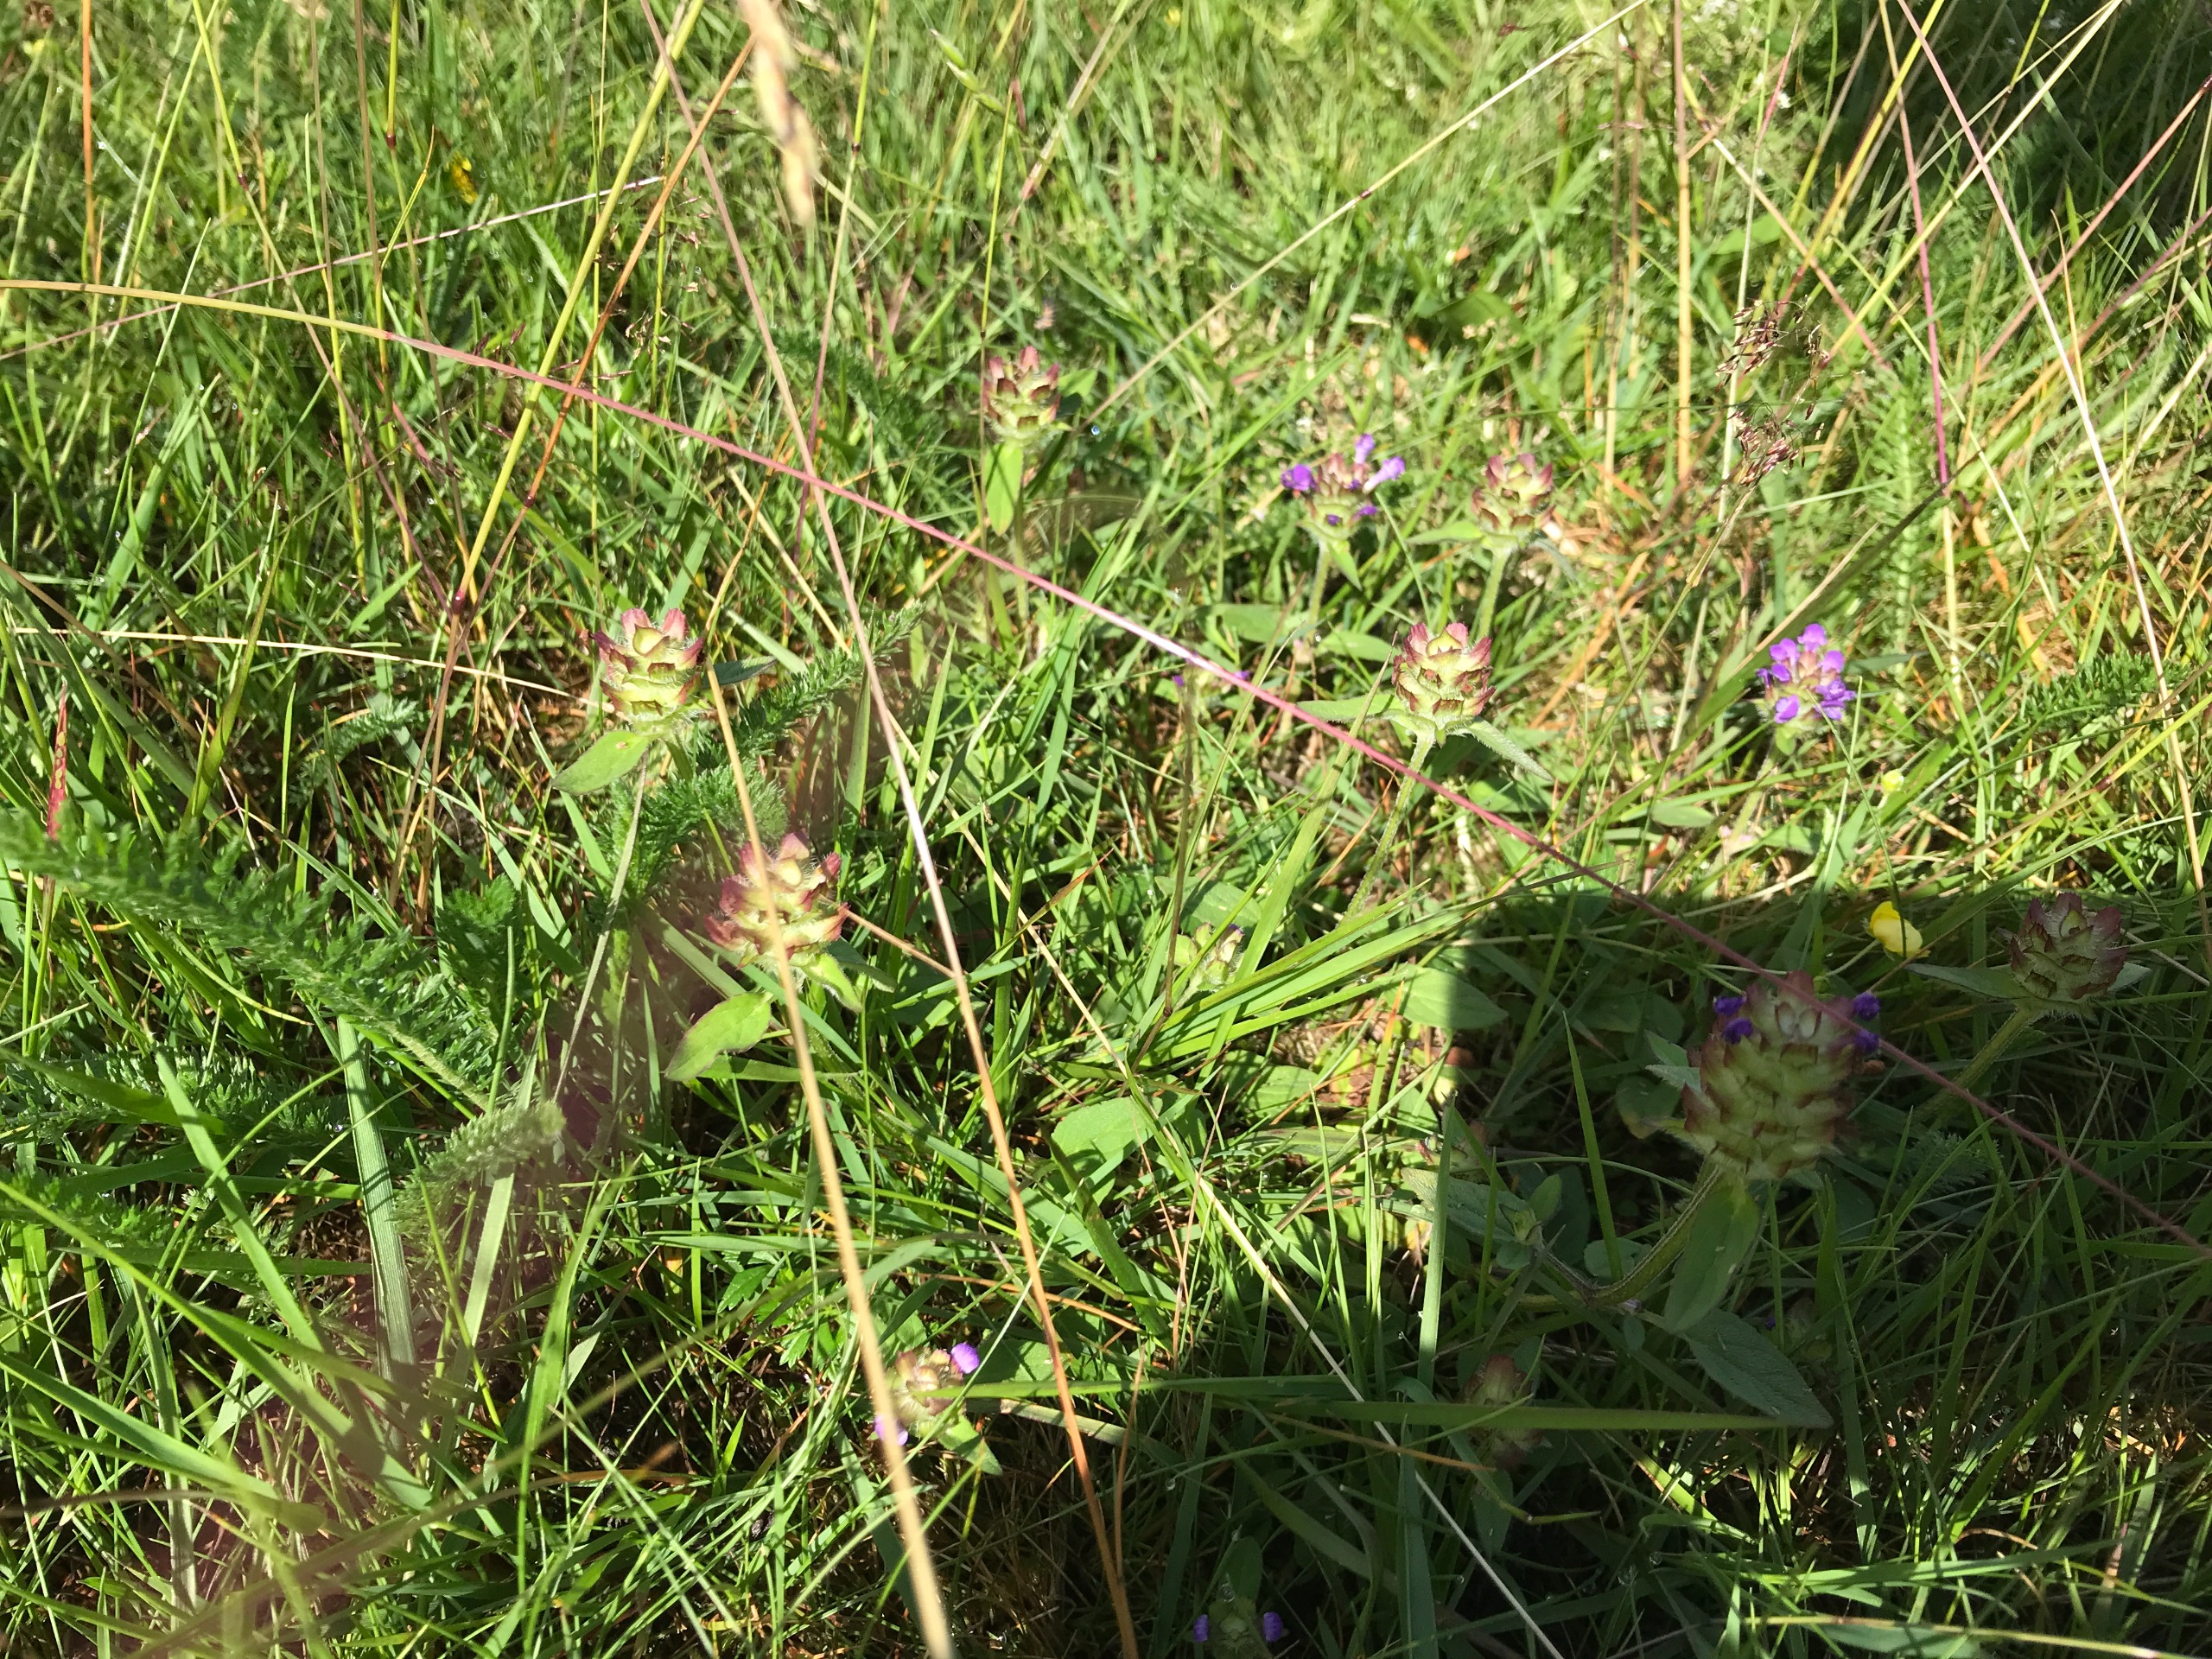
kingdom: Plantae
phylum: Tracheophyta
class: Magnoliopsida
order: Lamiales
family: Lamiaceae
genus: Prunella
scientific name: Prunella vulgaris
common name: Almindelig brunelle
